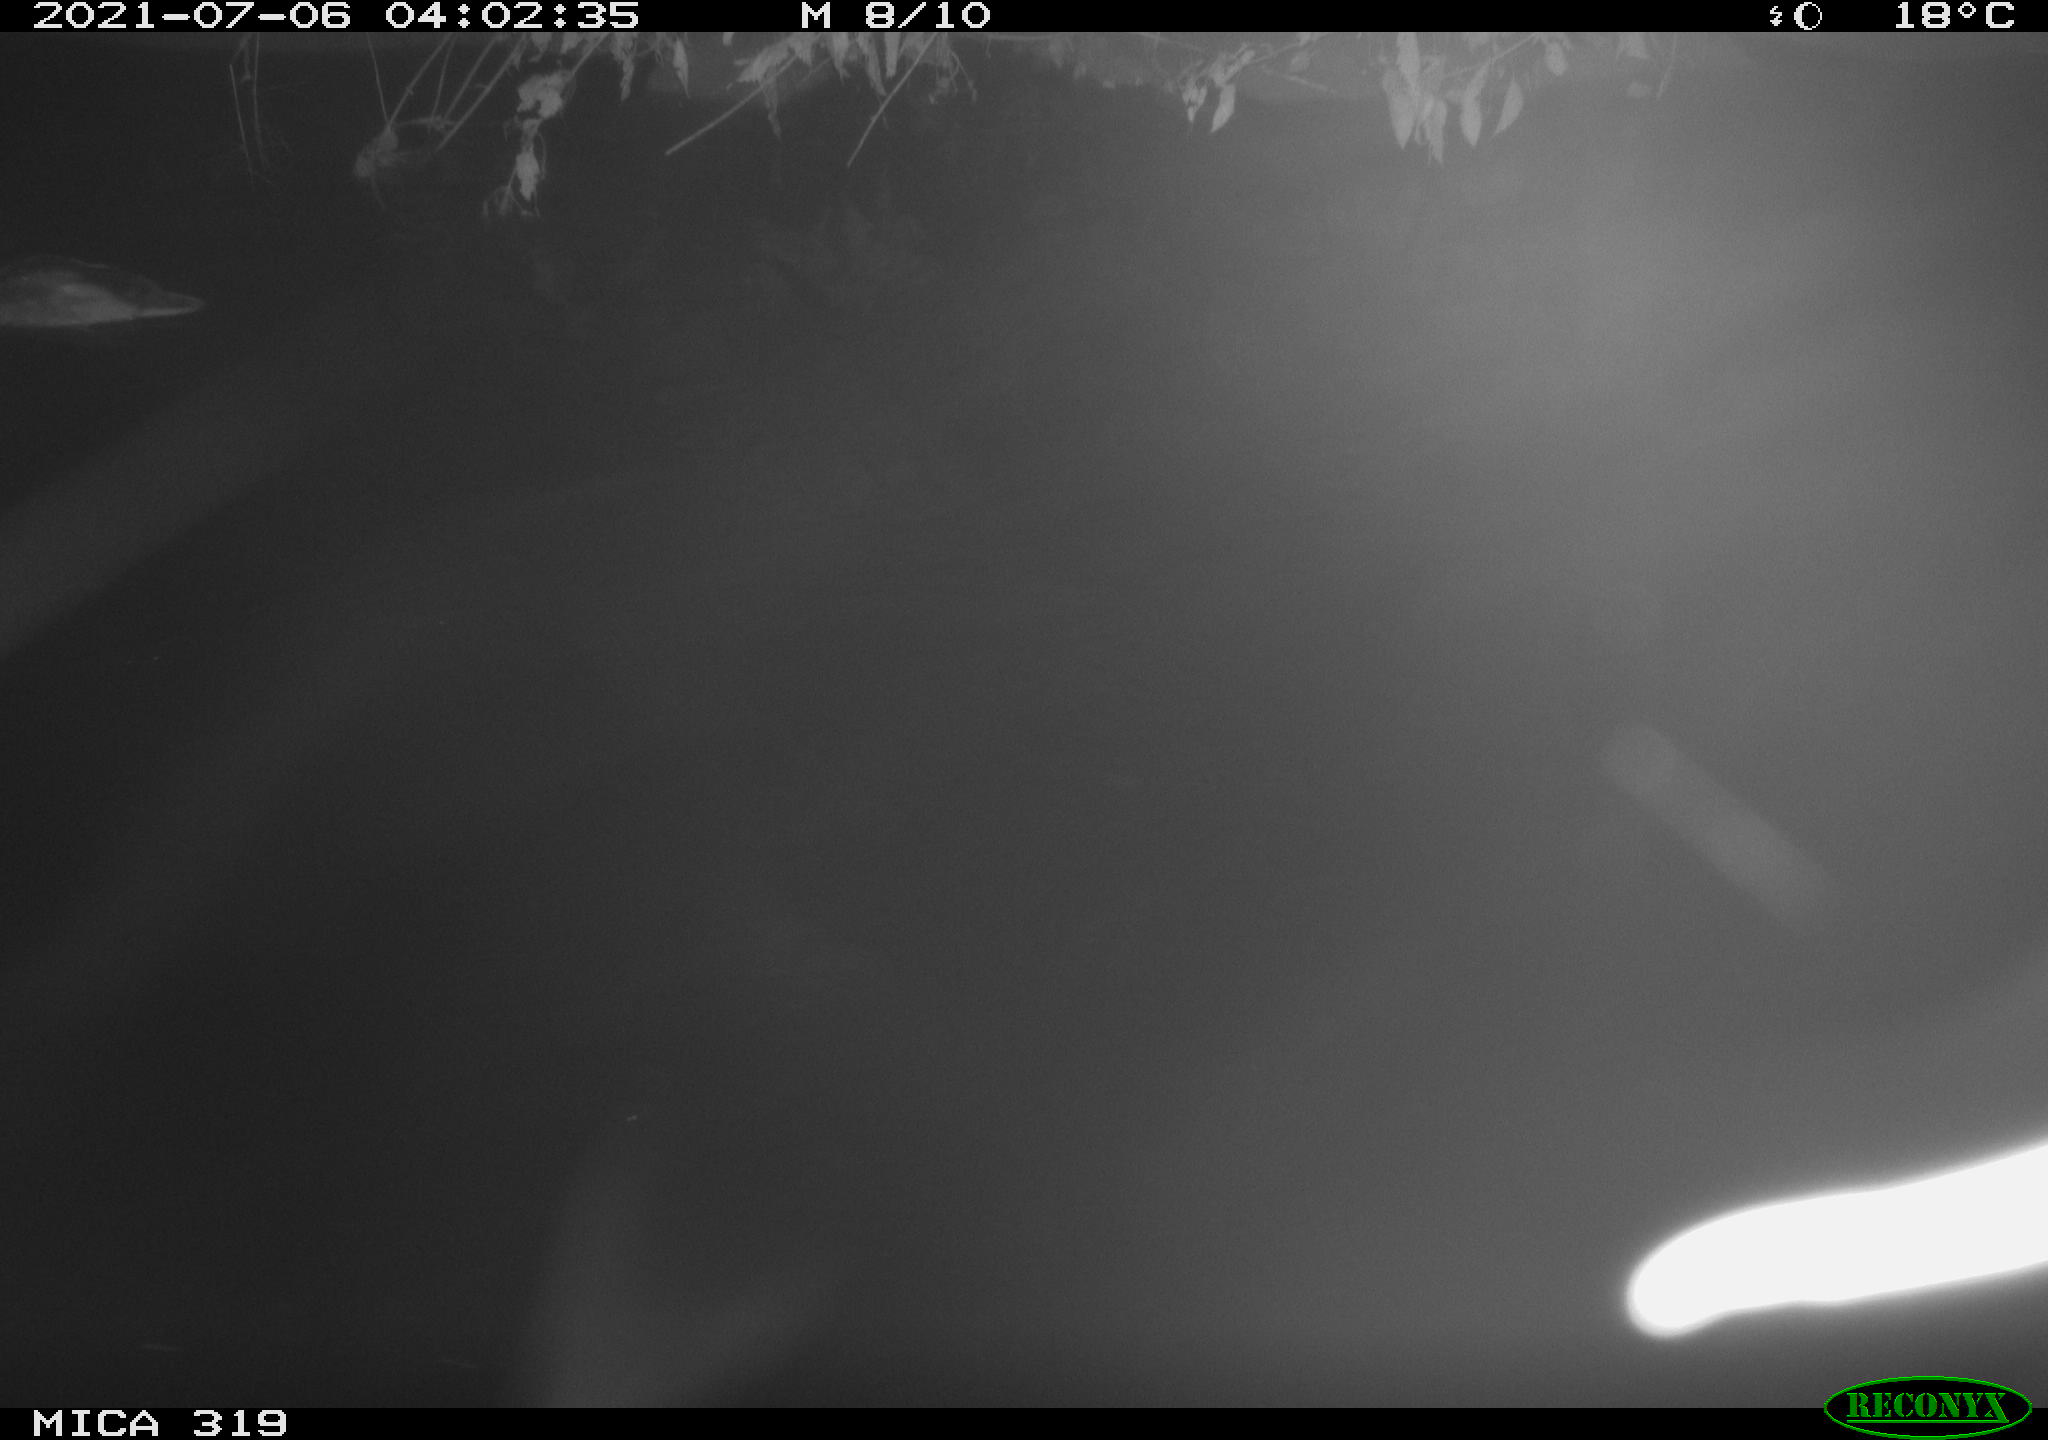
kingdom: Animalia
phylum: Chordata
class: Aves
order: Anseriformes
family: Anatidae
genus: Anas
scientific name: Anas platyrhynchos
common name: Mallard
